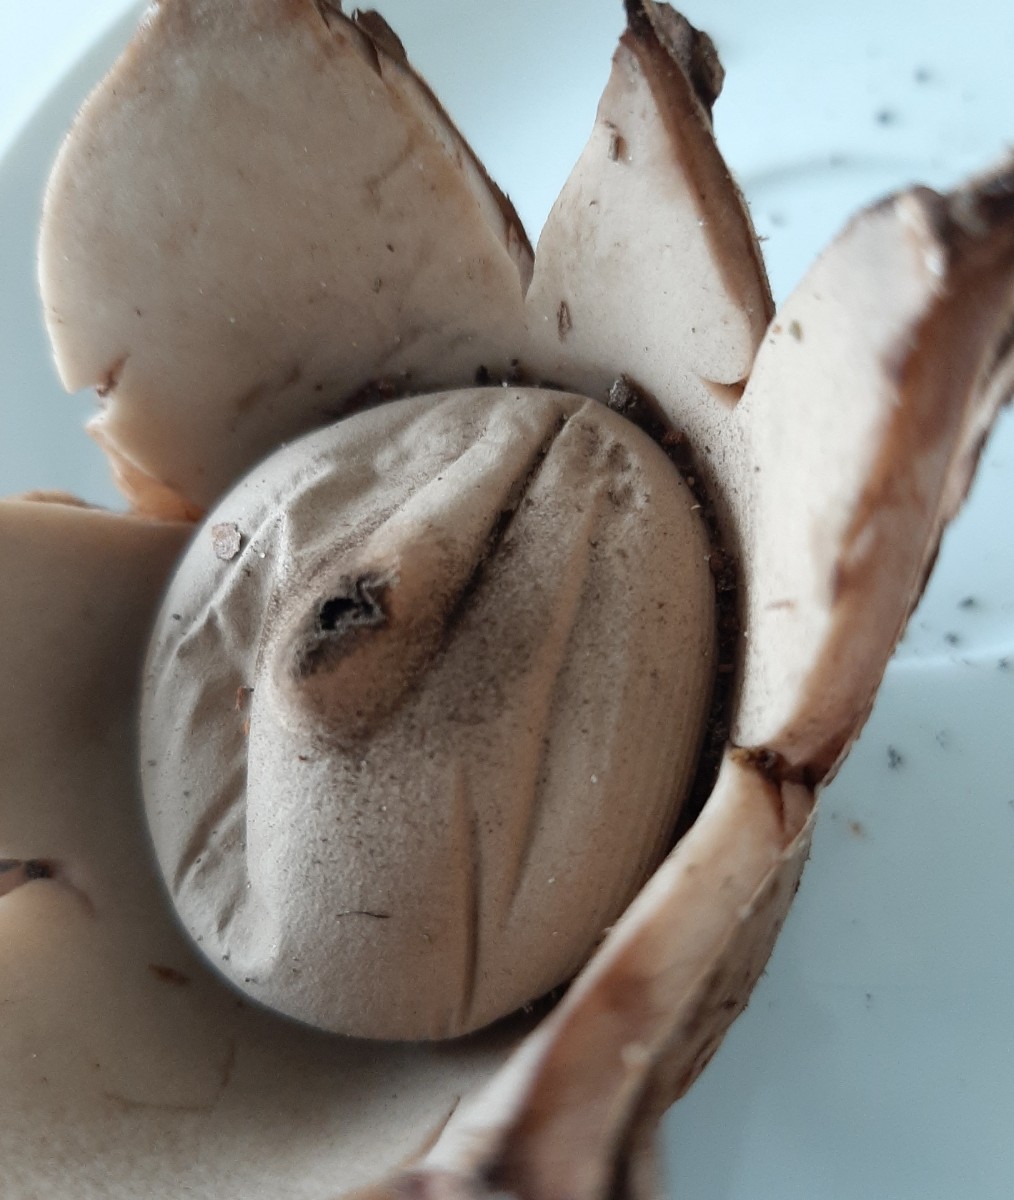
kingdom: Fungi
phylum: Basidiomycota
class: Agaricomycetes
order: Geastrales
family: Geastraceae
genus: Geastrum
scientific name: Geastrum michelianum
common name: kødet stjernebold
